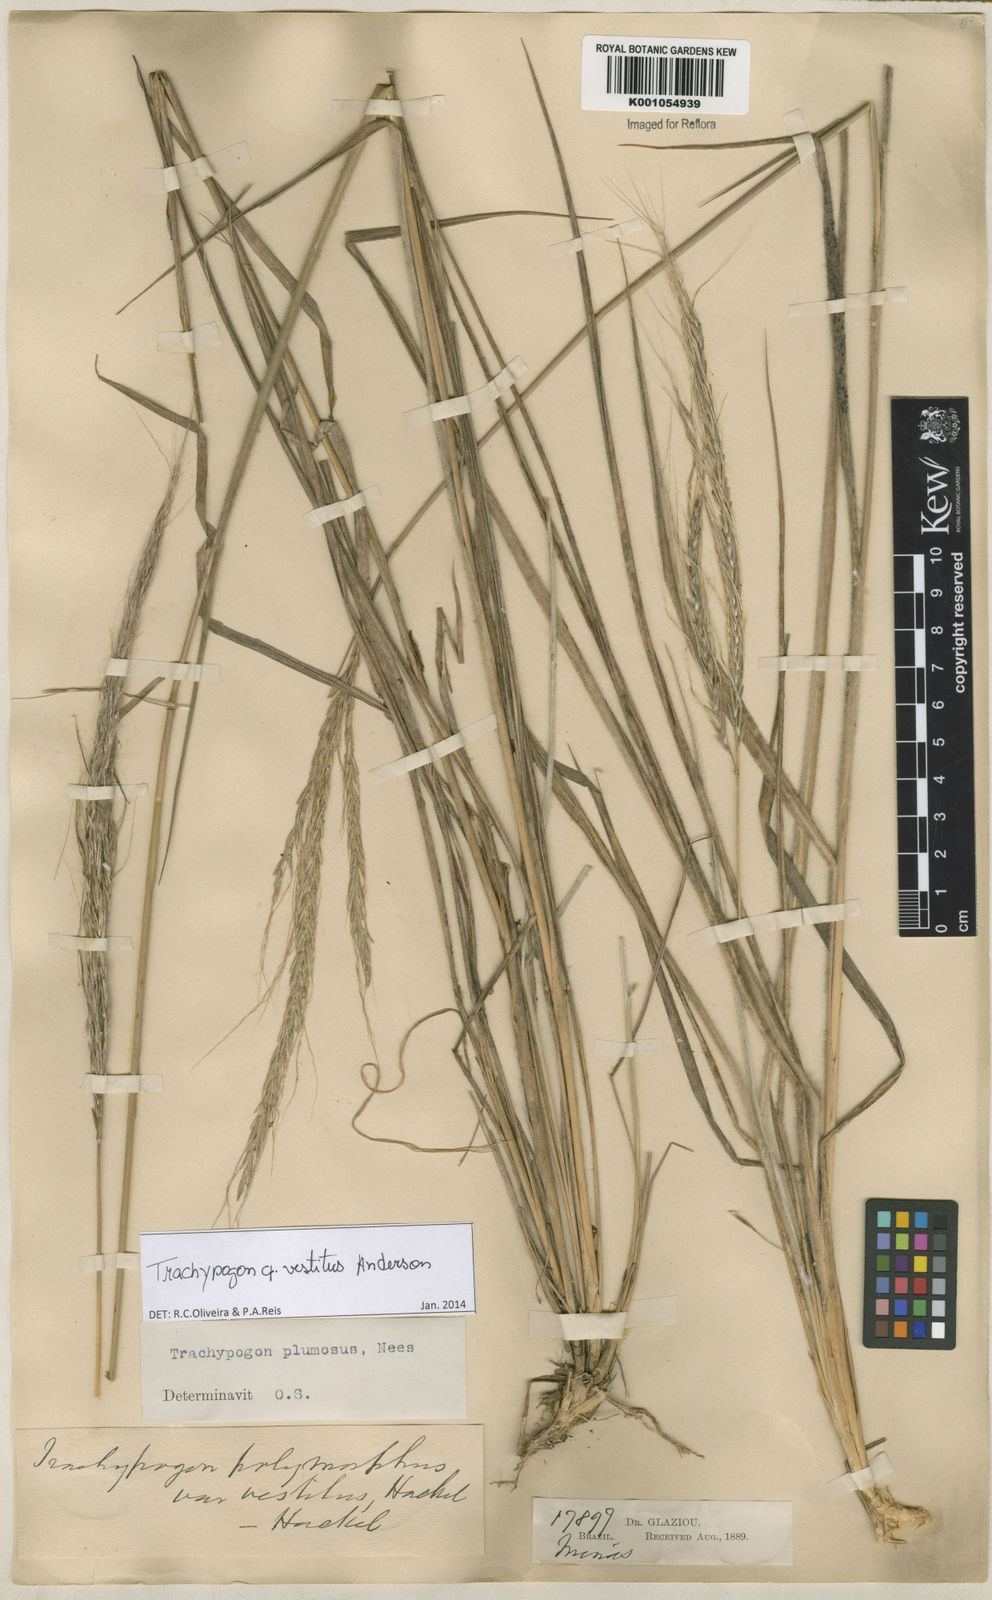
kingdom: Plantae
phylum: Tracheophyta
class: Liliopsida
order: Poales
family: Poaceae
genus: Trachypogon
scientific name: Trachypogon vestitus
